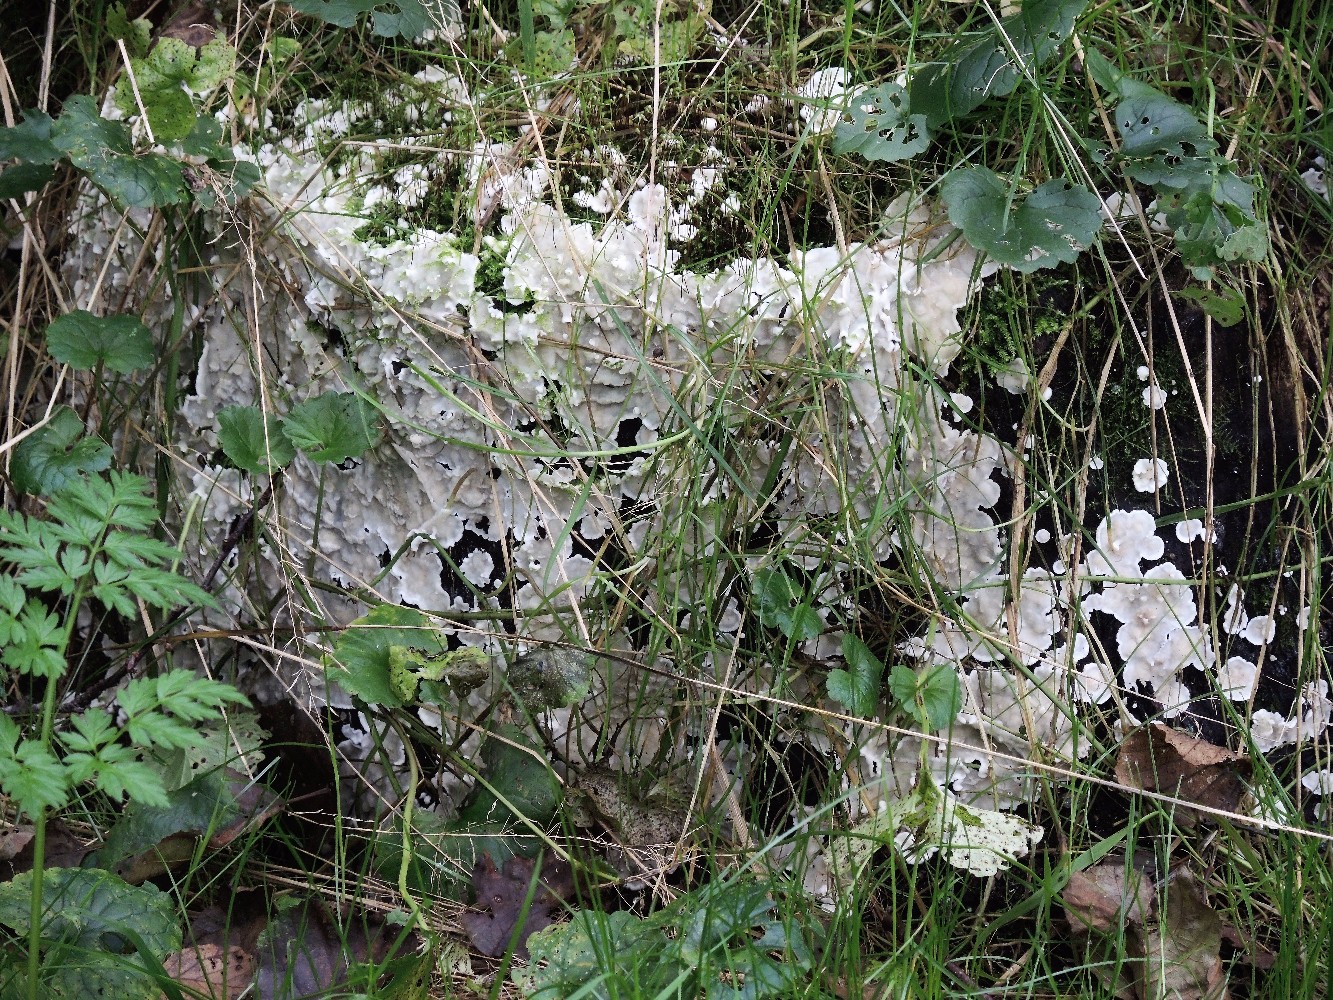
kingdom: Fungi
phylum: Basidiomycota
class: Agaricomycetes
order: Polyporales
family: Meruliaceae
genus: Physisporinus
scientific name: Physisporinus vitreus
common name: mastesvamp
